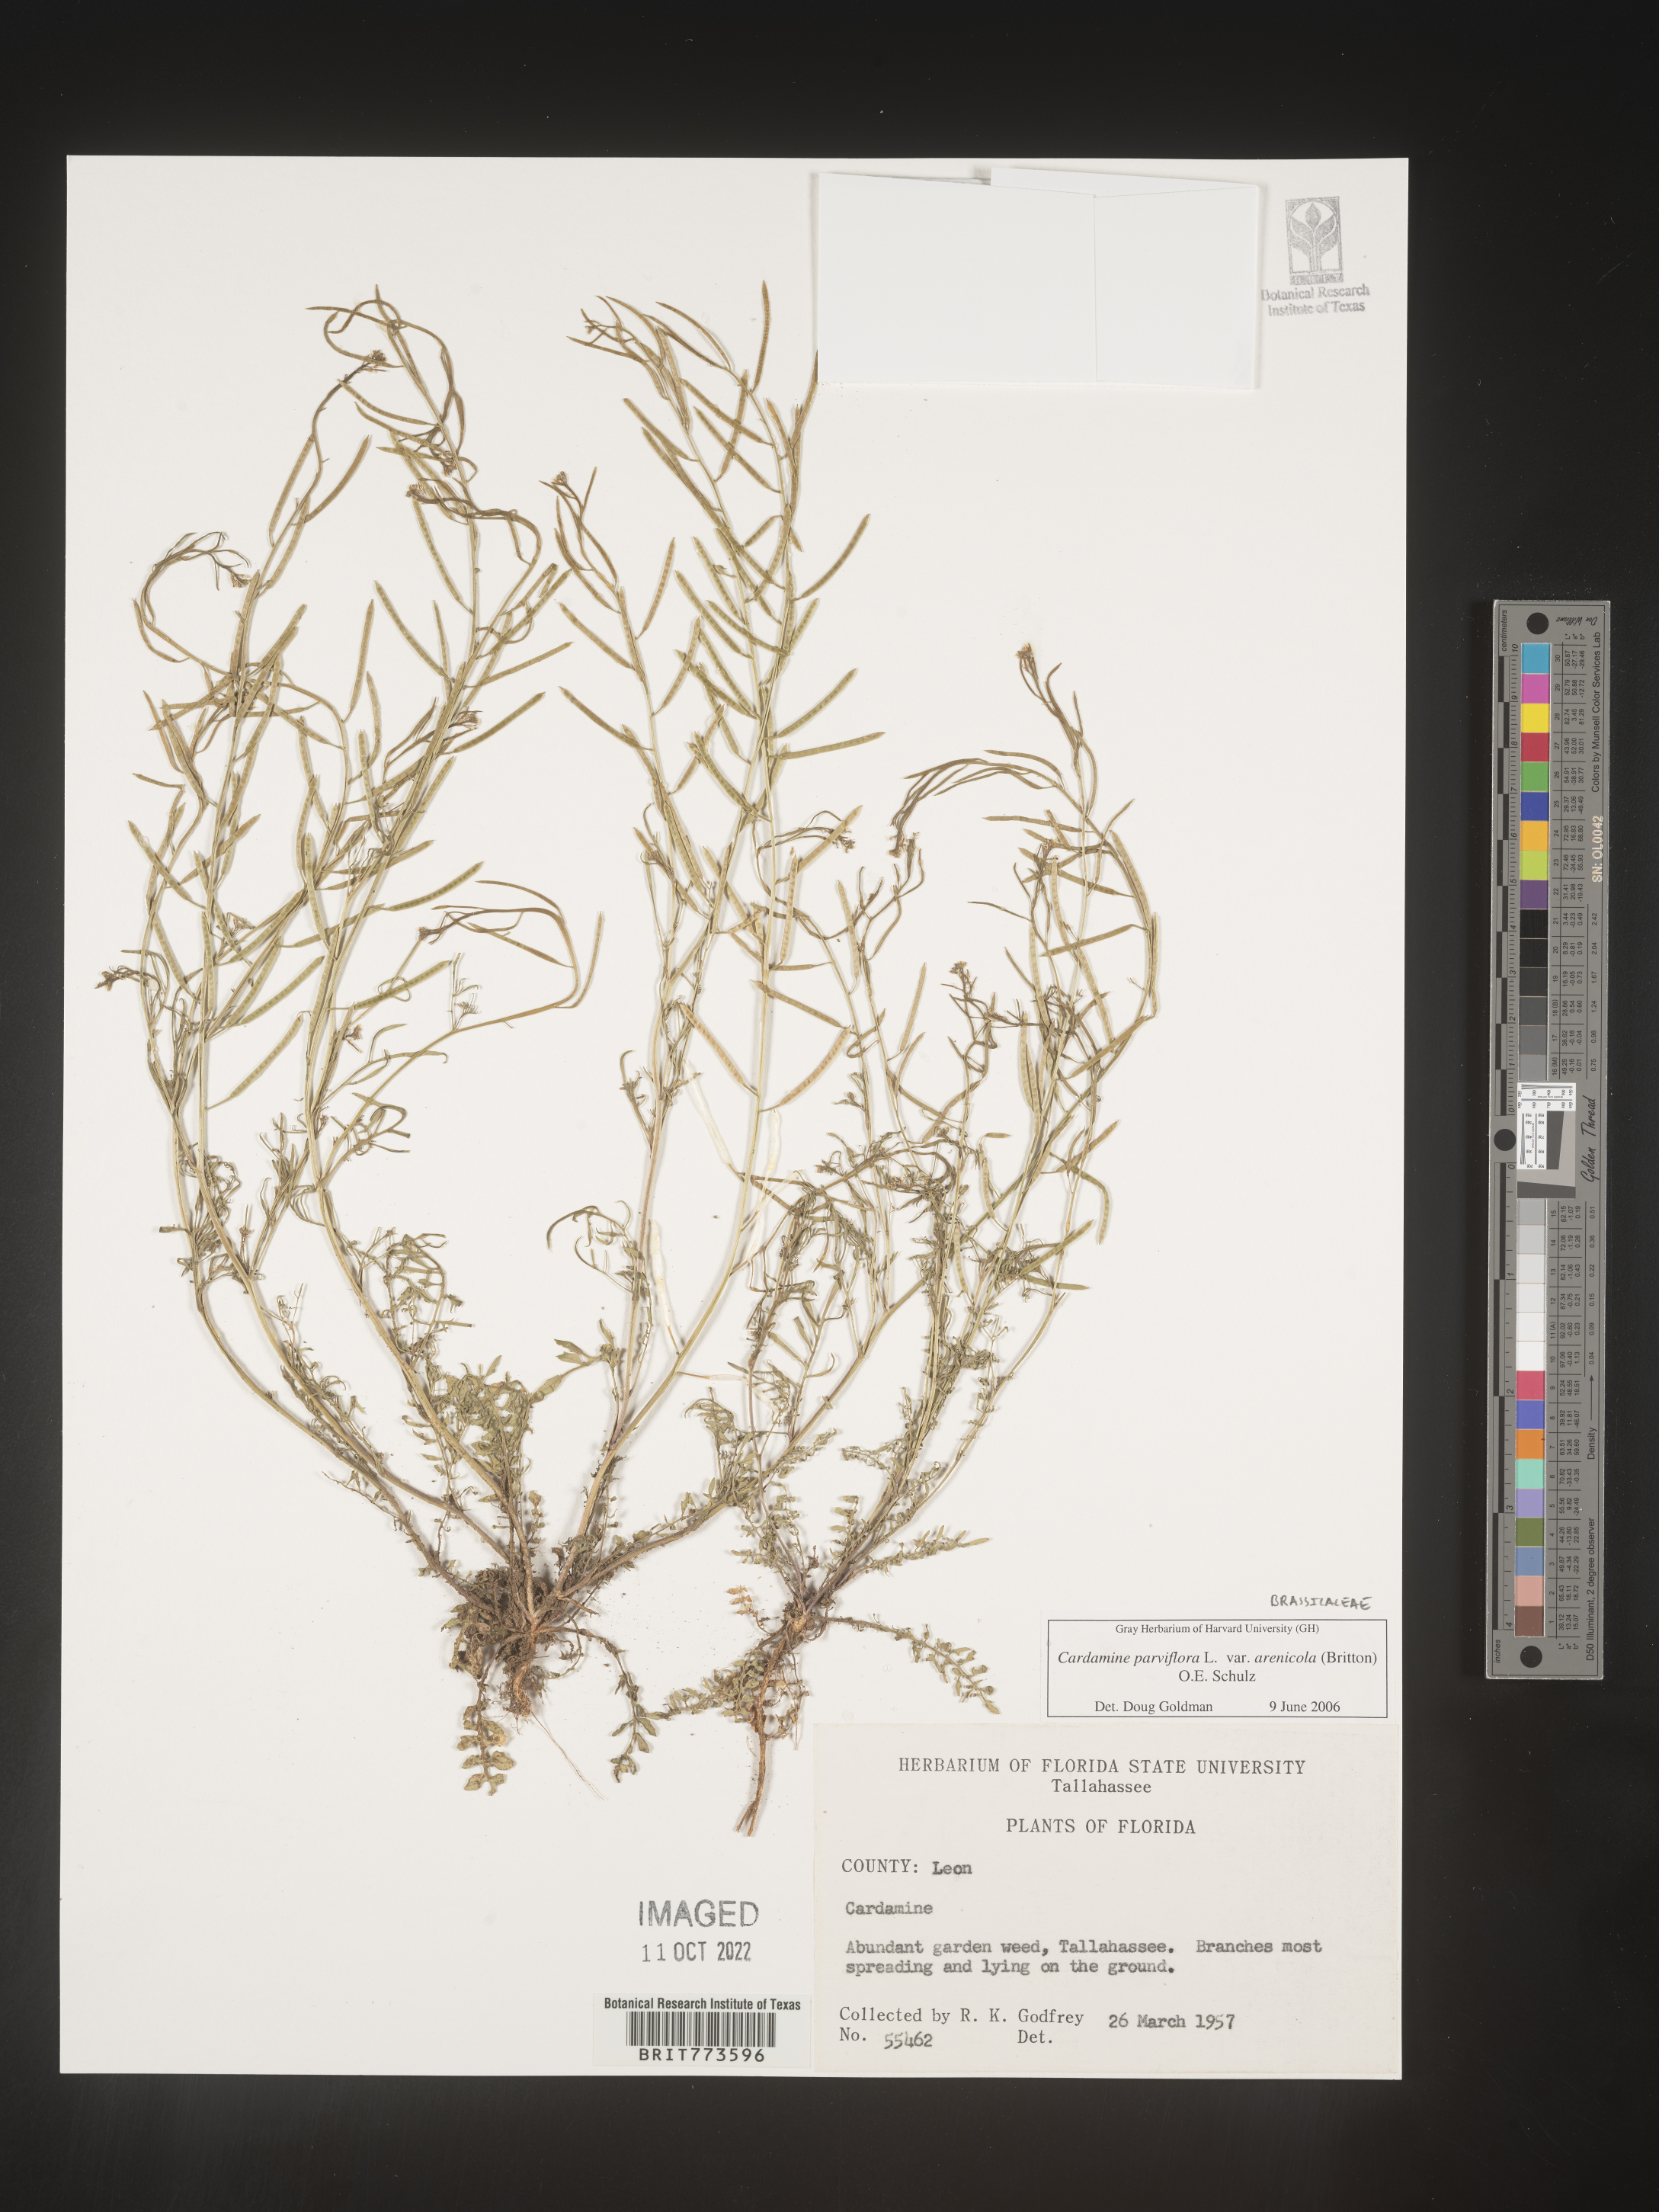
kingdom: Plantae
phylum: Tracheophyta
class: Magnoliopsida
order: Brassicales
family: Brassicaceae
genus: Cardamine
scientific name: Cardamine parviflora
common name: Sand bittercress
